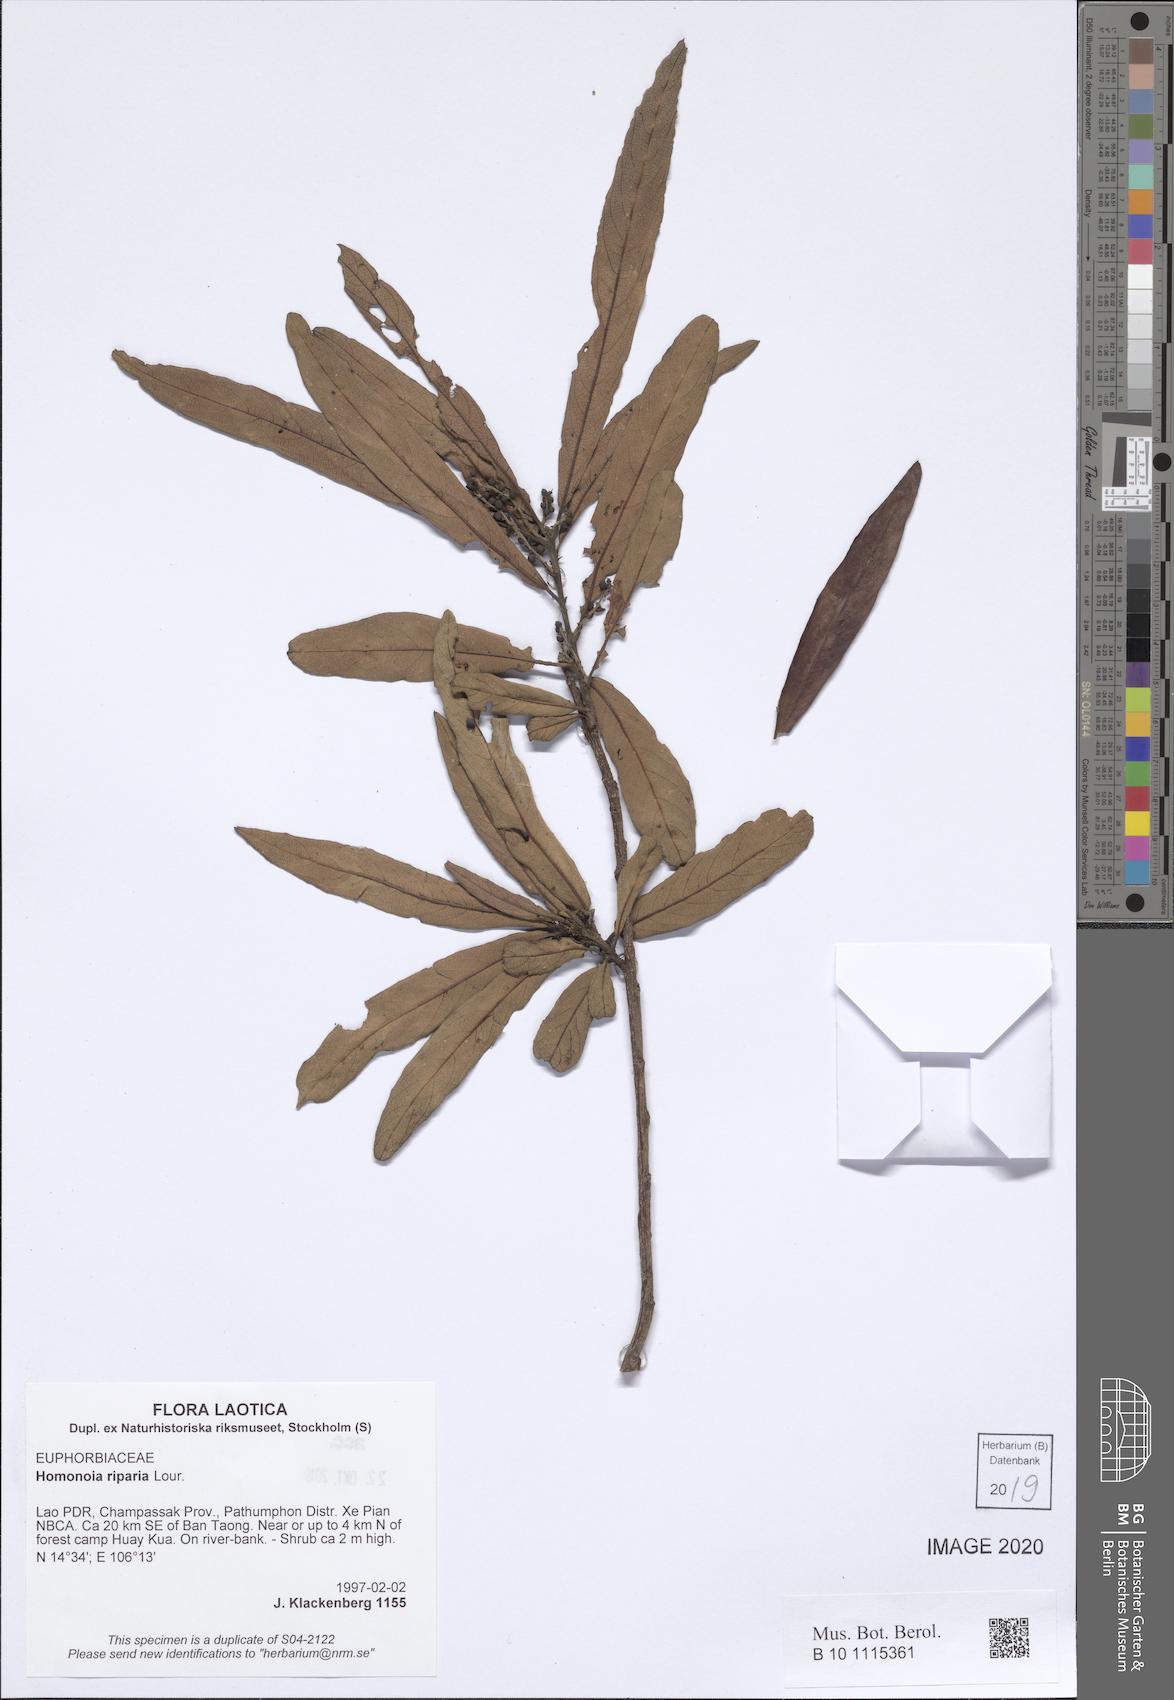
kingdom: Plantae
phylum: Tracheophyta
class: Magnoliopsida
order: Malpighiales
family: Euphorbiaceae
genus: Homonoia
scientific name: Homonoia riparia
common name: Willow-leaved water croton
